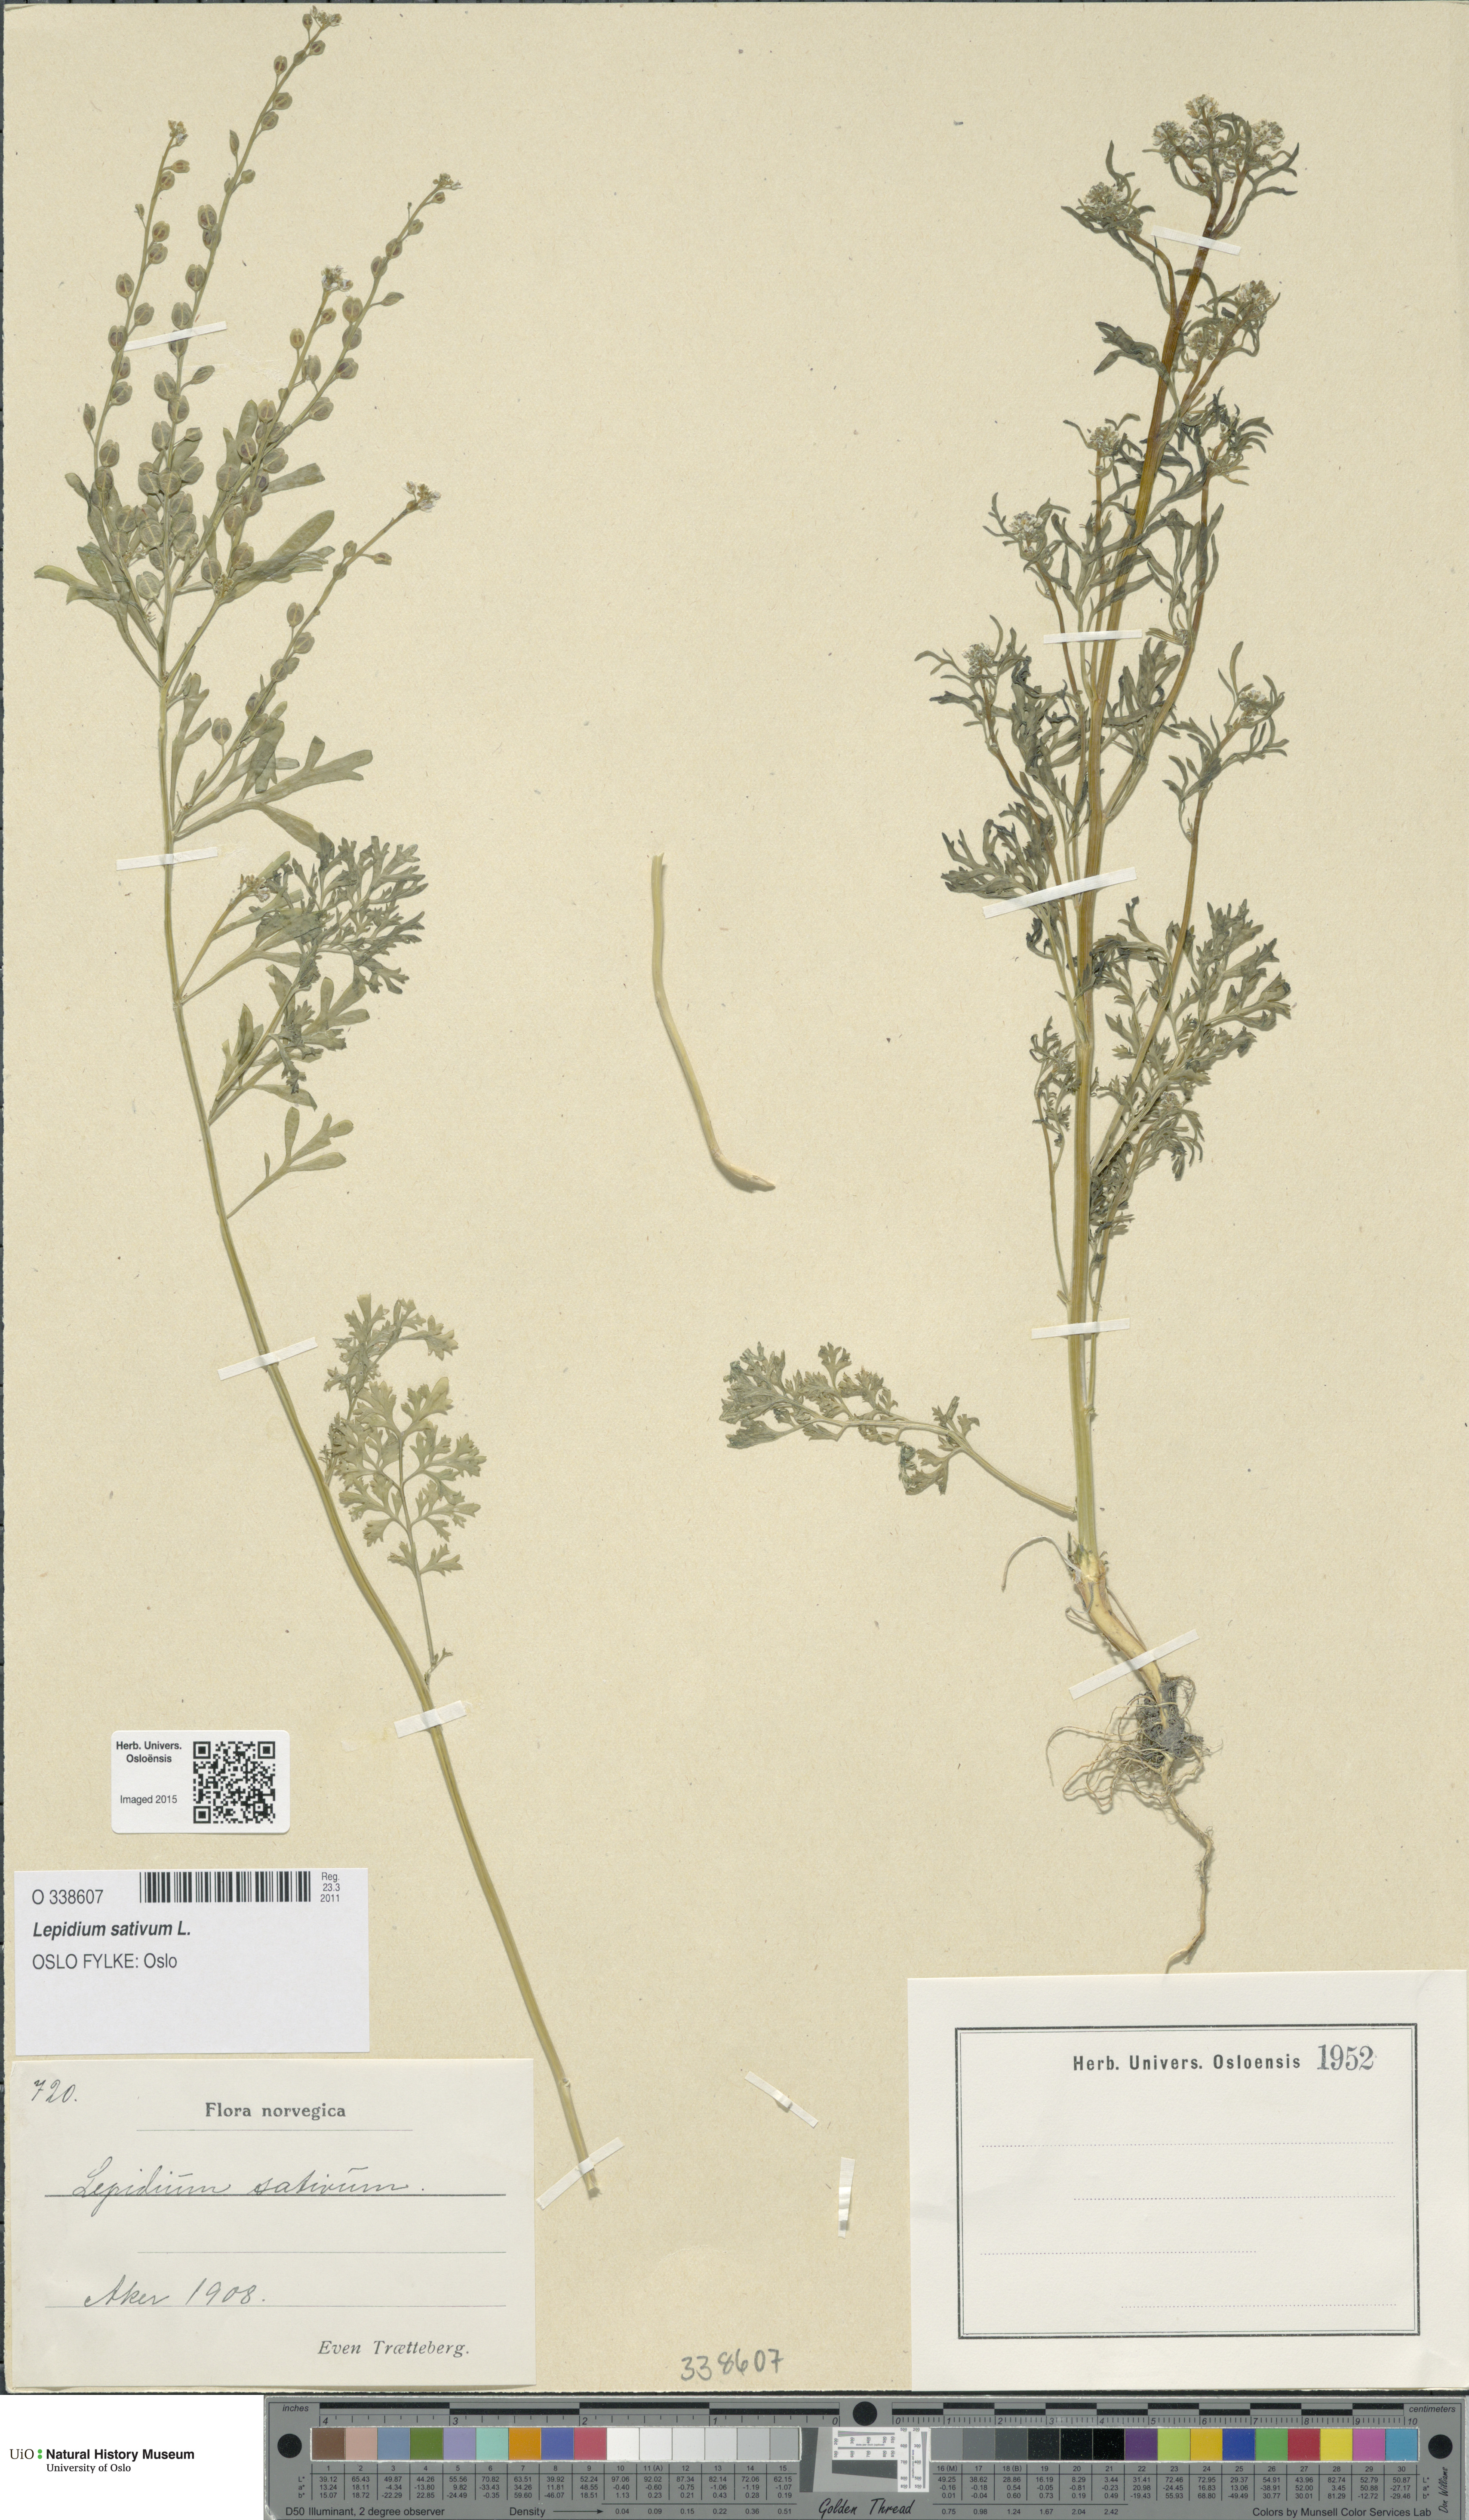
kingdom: Plantae
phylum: Tracheophyta
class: Magnoliopsida
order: Brassicales
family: Brassicaceae
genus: Lepidium
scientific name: Lepidium sativum
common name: Garden cress
